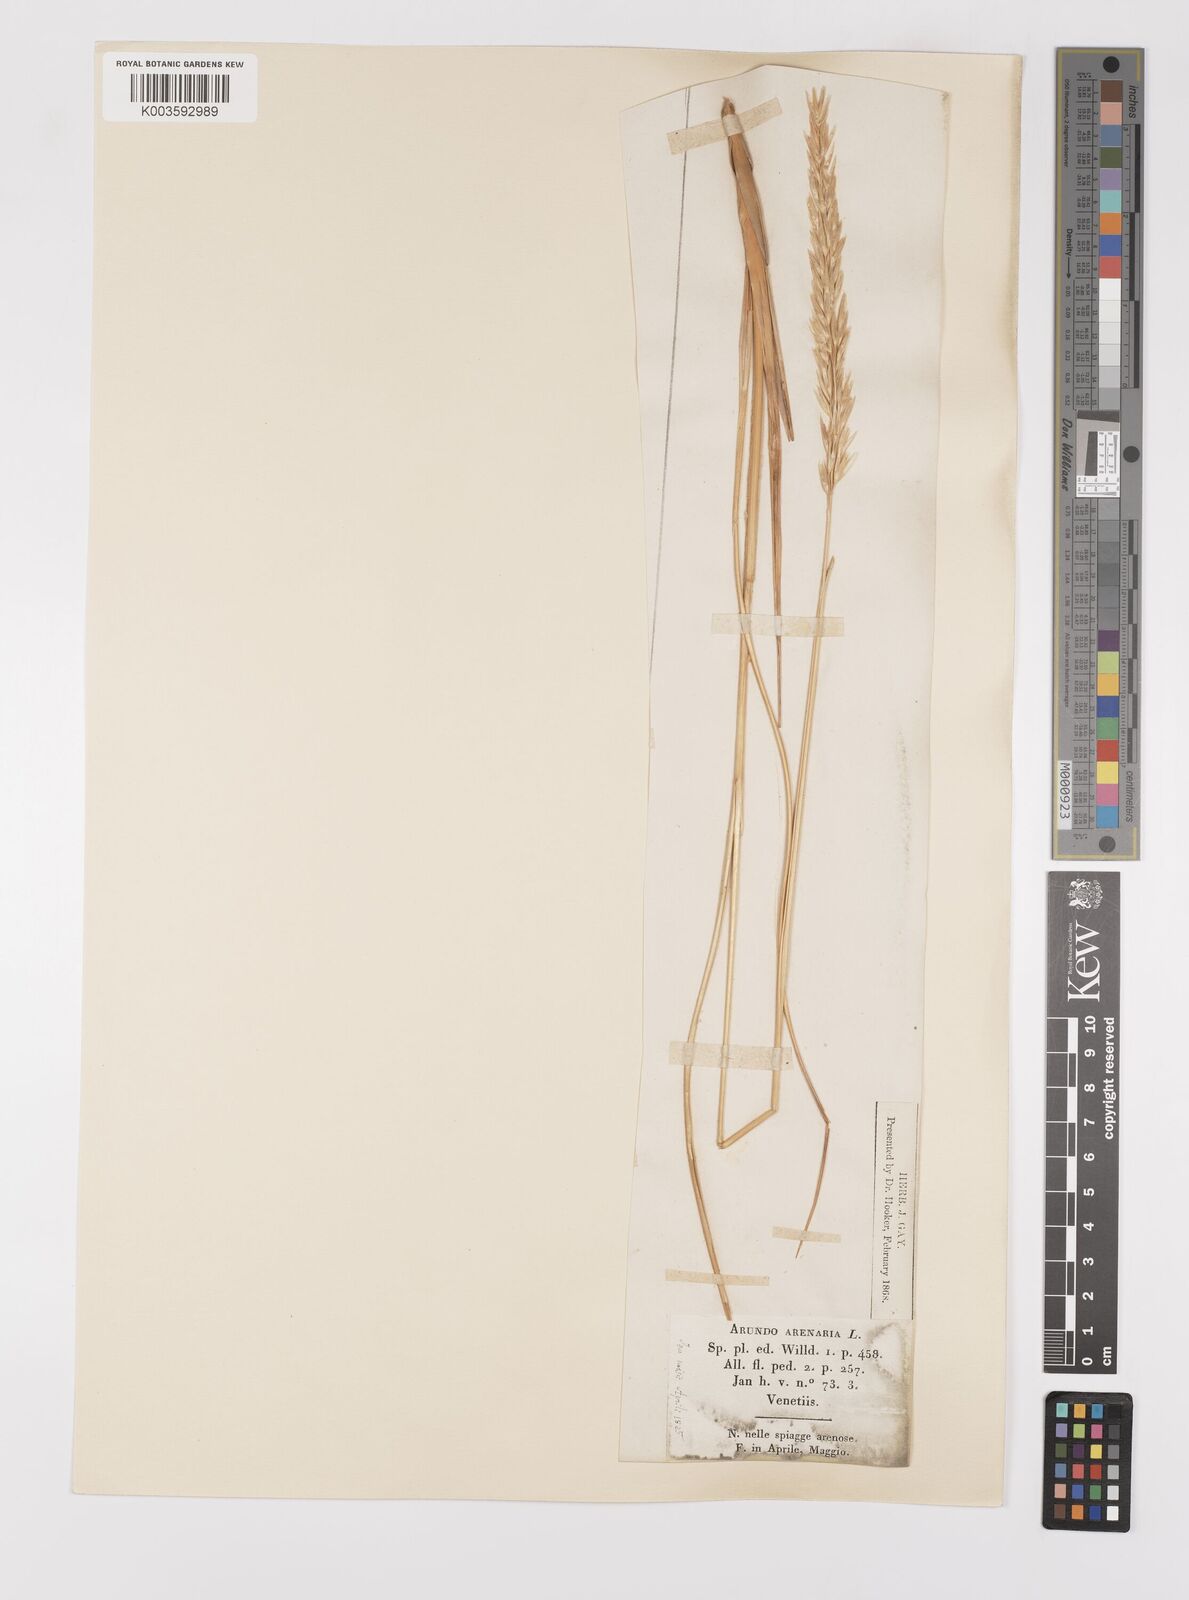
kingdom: Plantae
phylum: Tracheophyta
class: Liliopsida
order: Poales
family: Poaceae
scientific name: Poaceae
